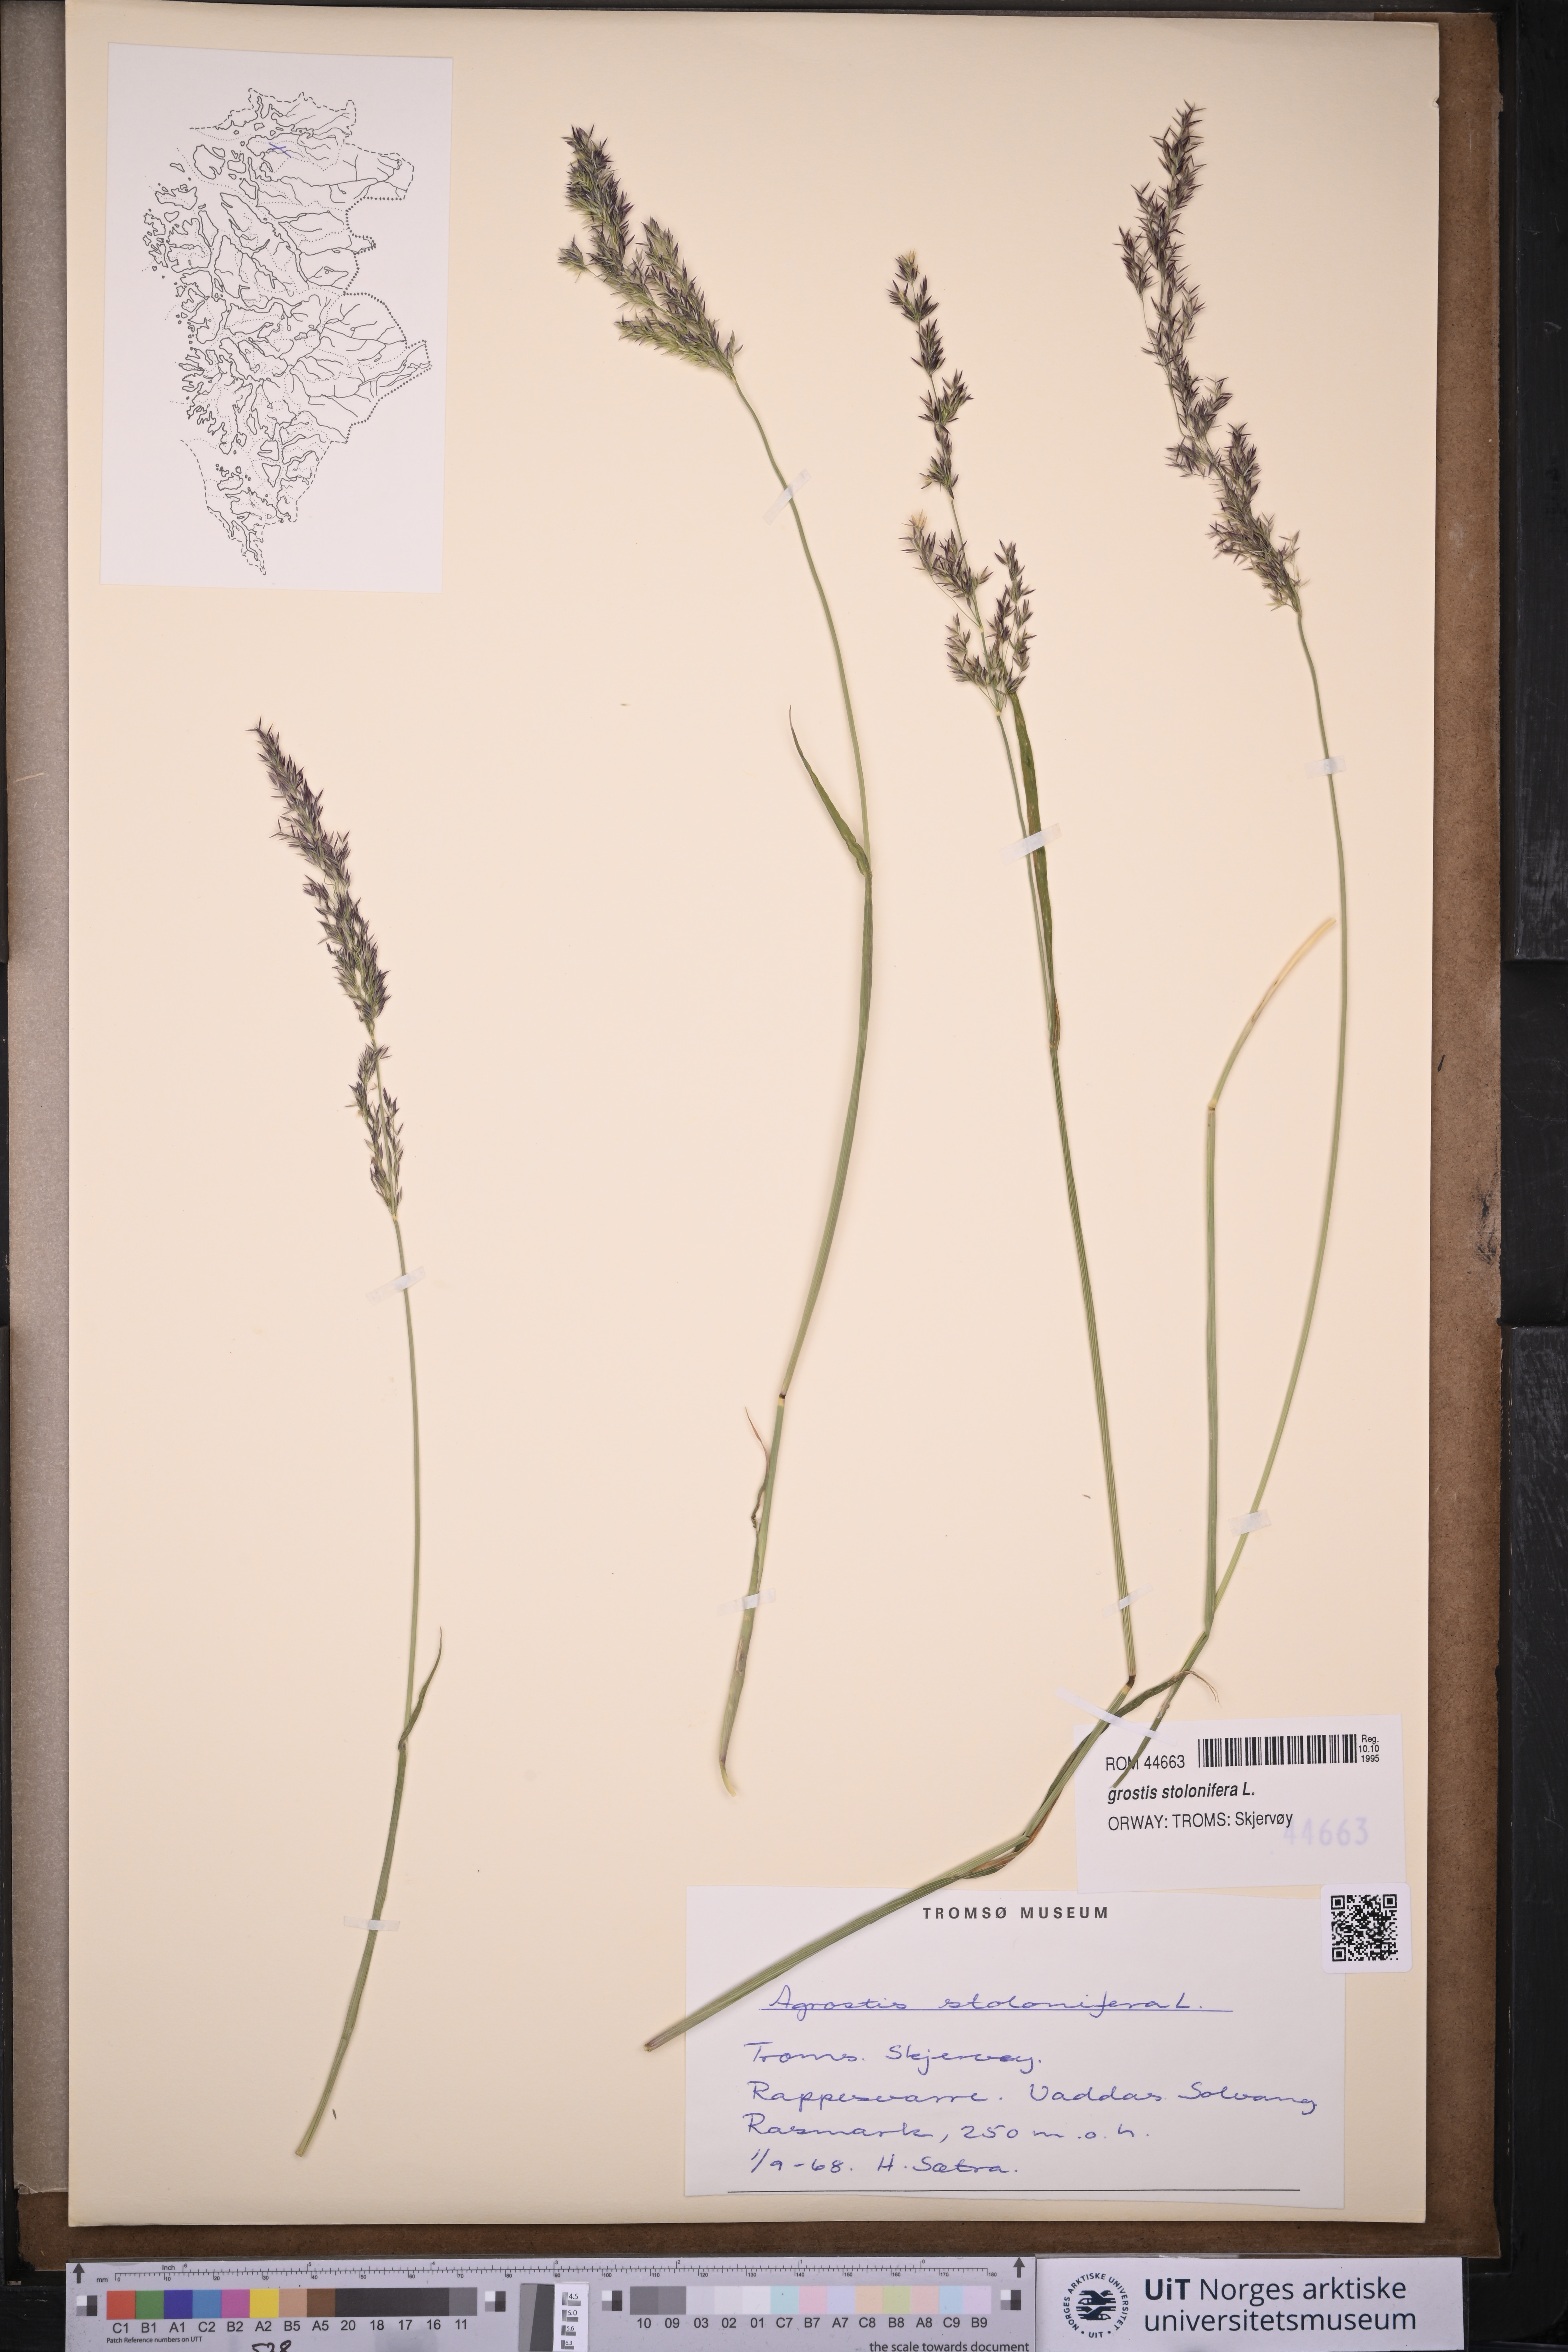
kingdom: Plantae
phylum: Tracheophyta
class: Liliopsida
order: Poales
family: Poaceae
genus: Agrostis
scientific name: Agrostis stolonifera
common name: Creeping bentgrass
